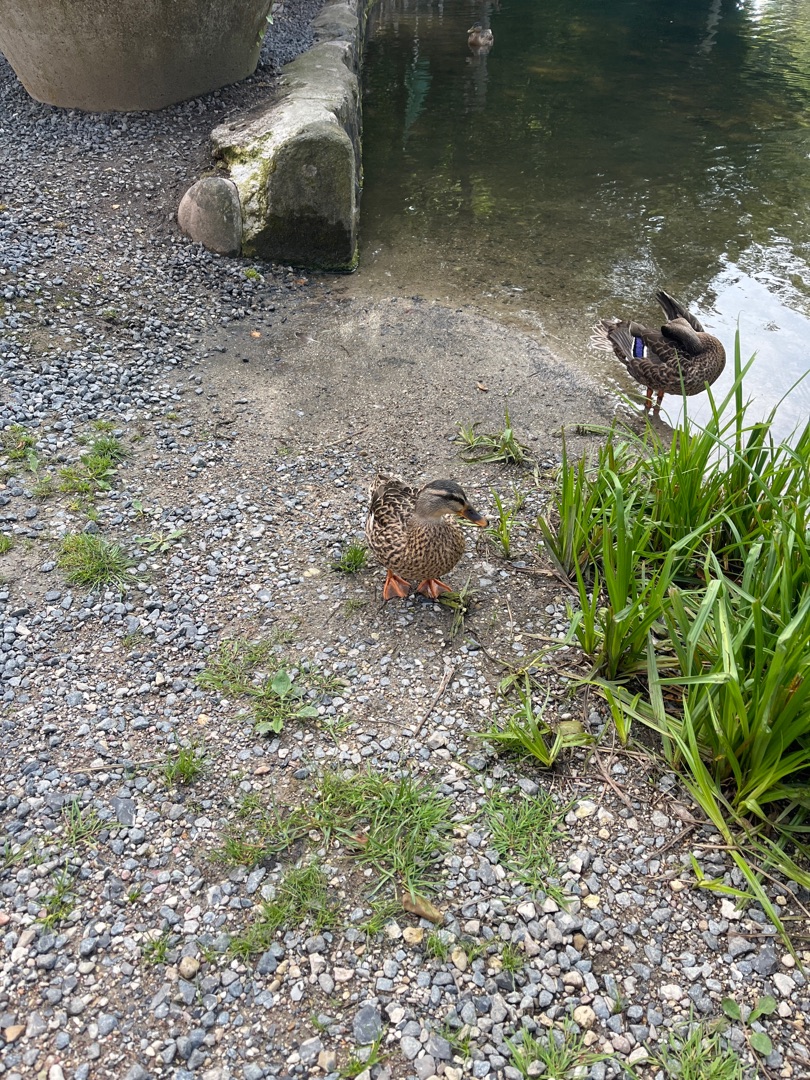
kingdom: Animalia
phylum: Chordata
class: Aves
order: Anseriformes
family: Anatidae
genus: Anas
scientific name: Anas platyrhynchos
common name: Gråand
